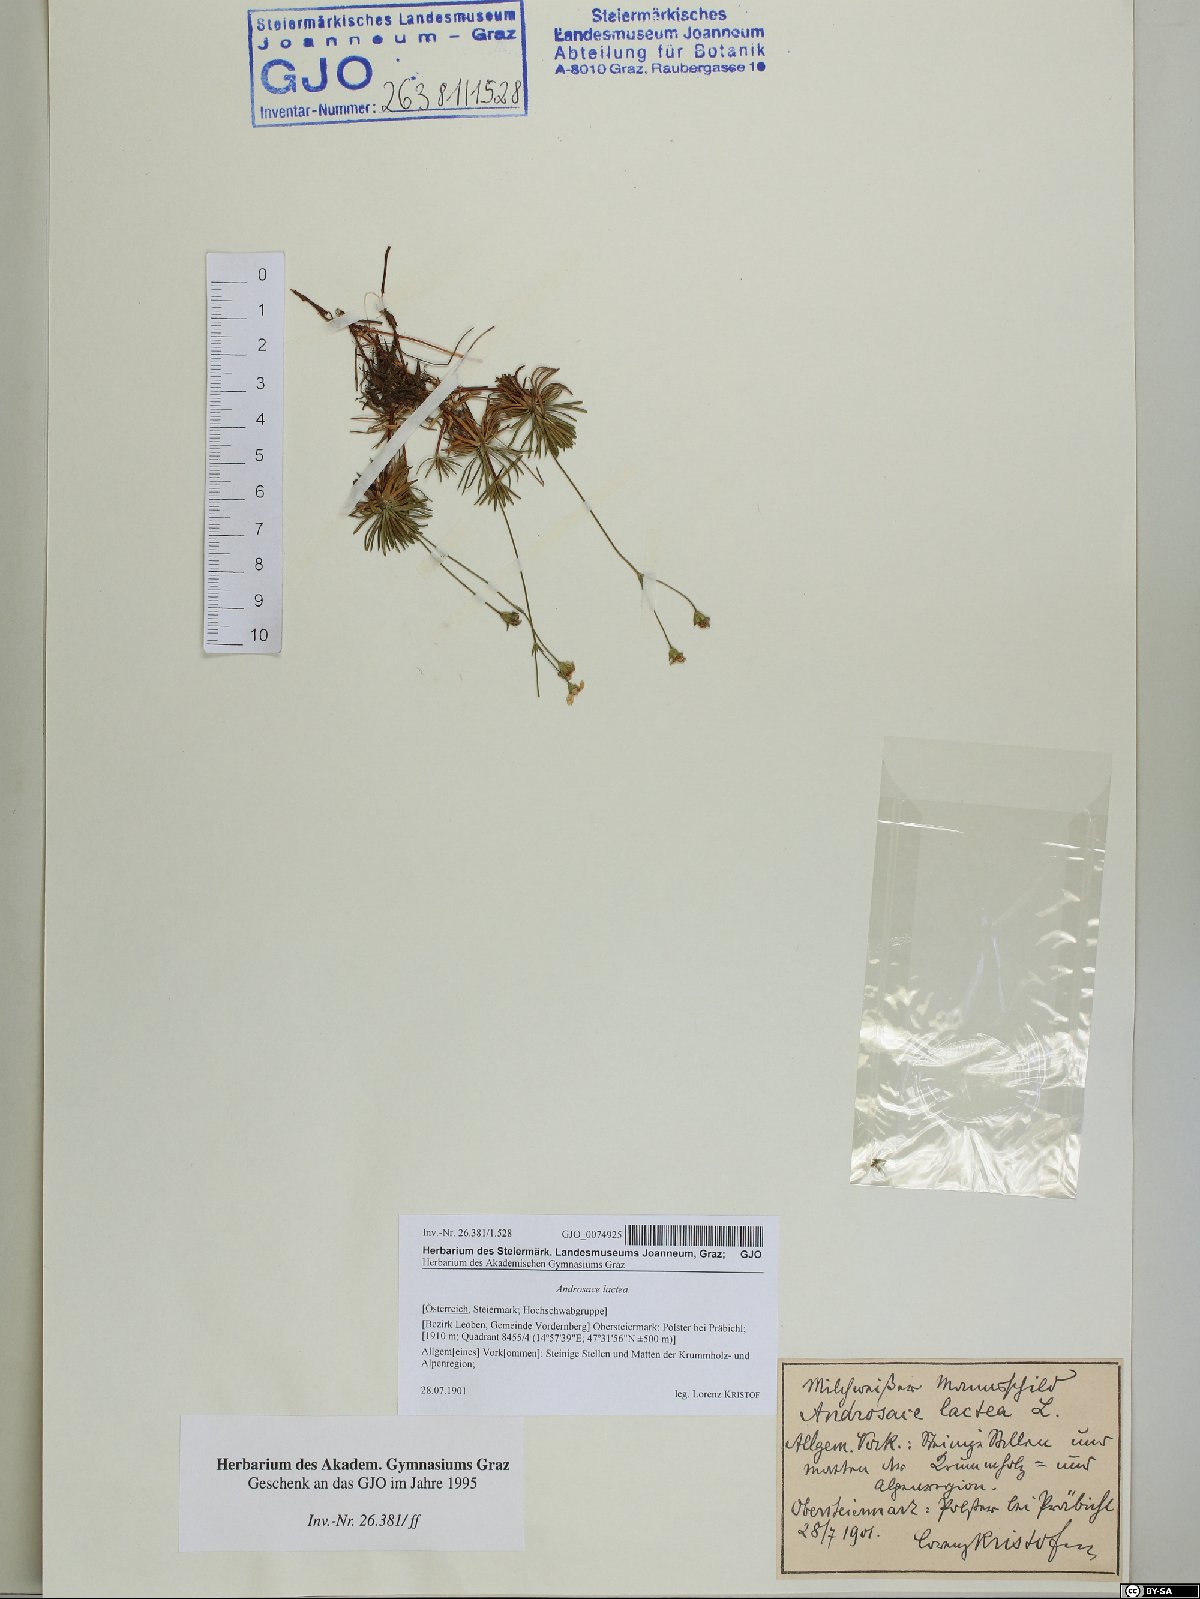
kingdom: Plantae
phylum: Tracheophyta
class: Magnoliopsida
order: Ericales
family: Primulaceae
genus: Androsace
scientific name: Androsace lactea
